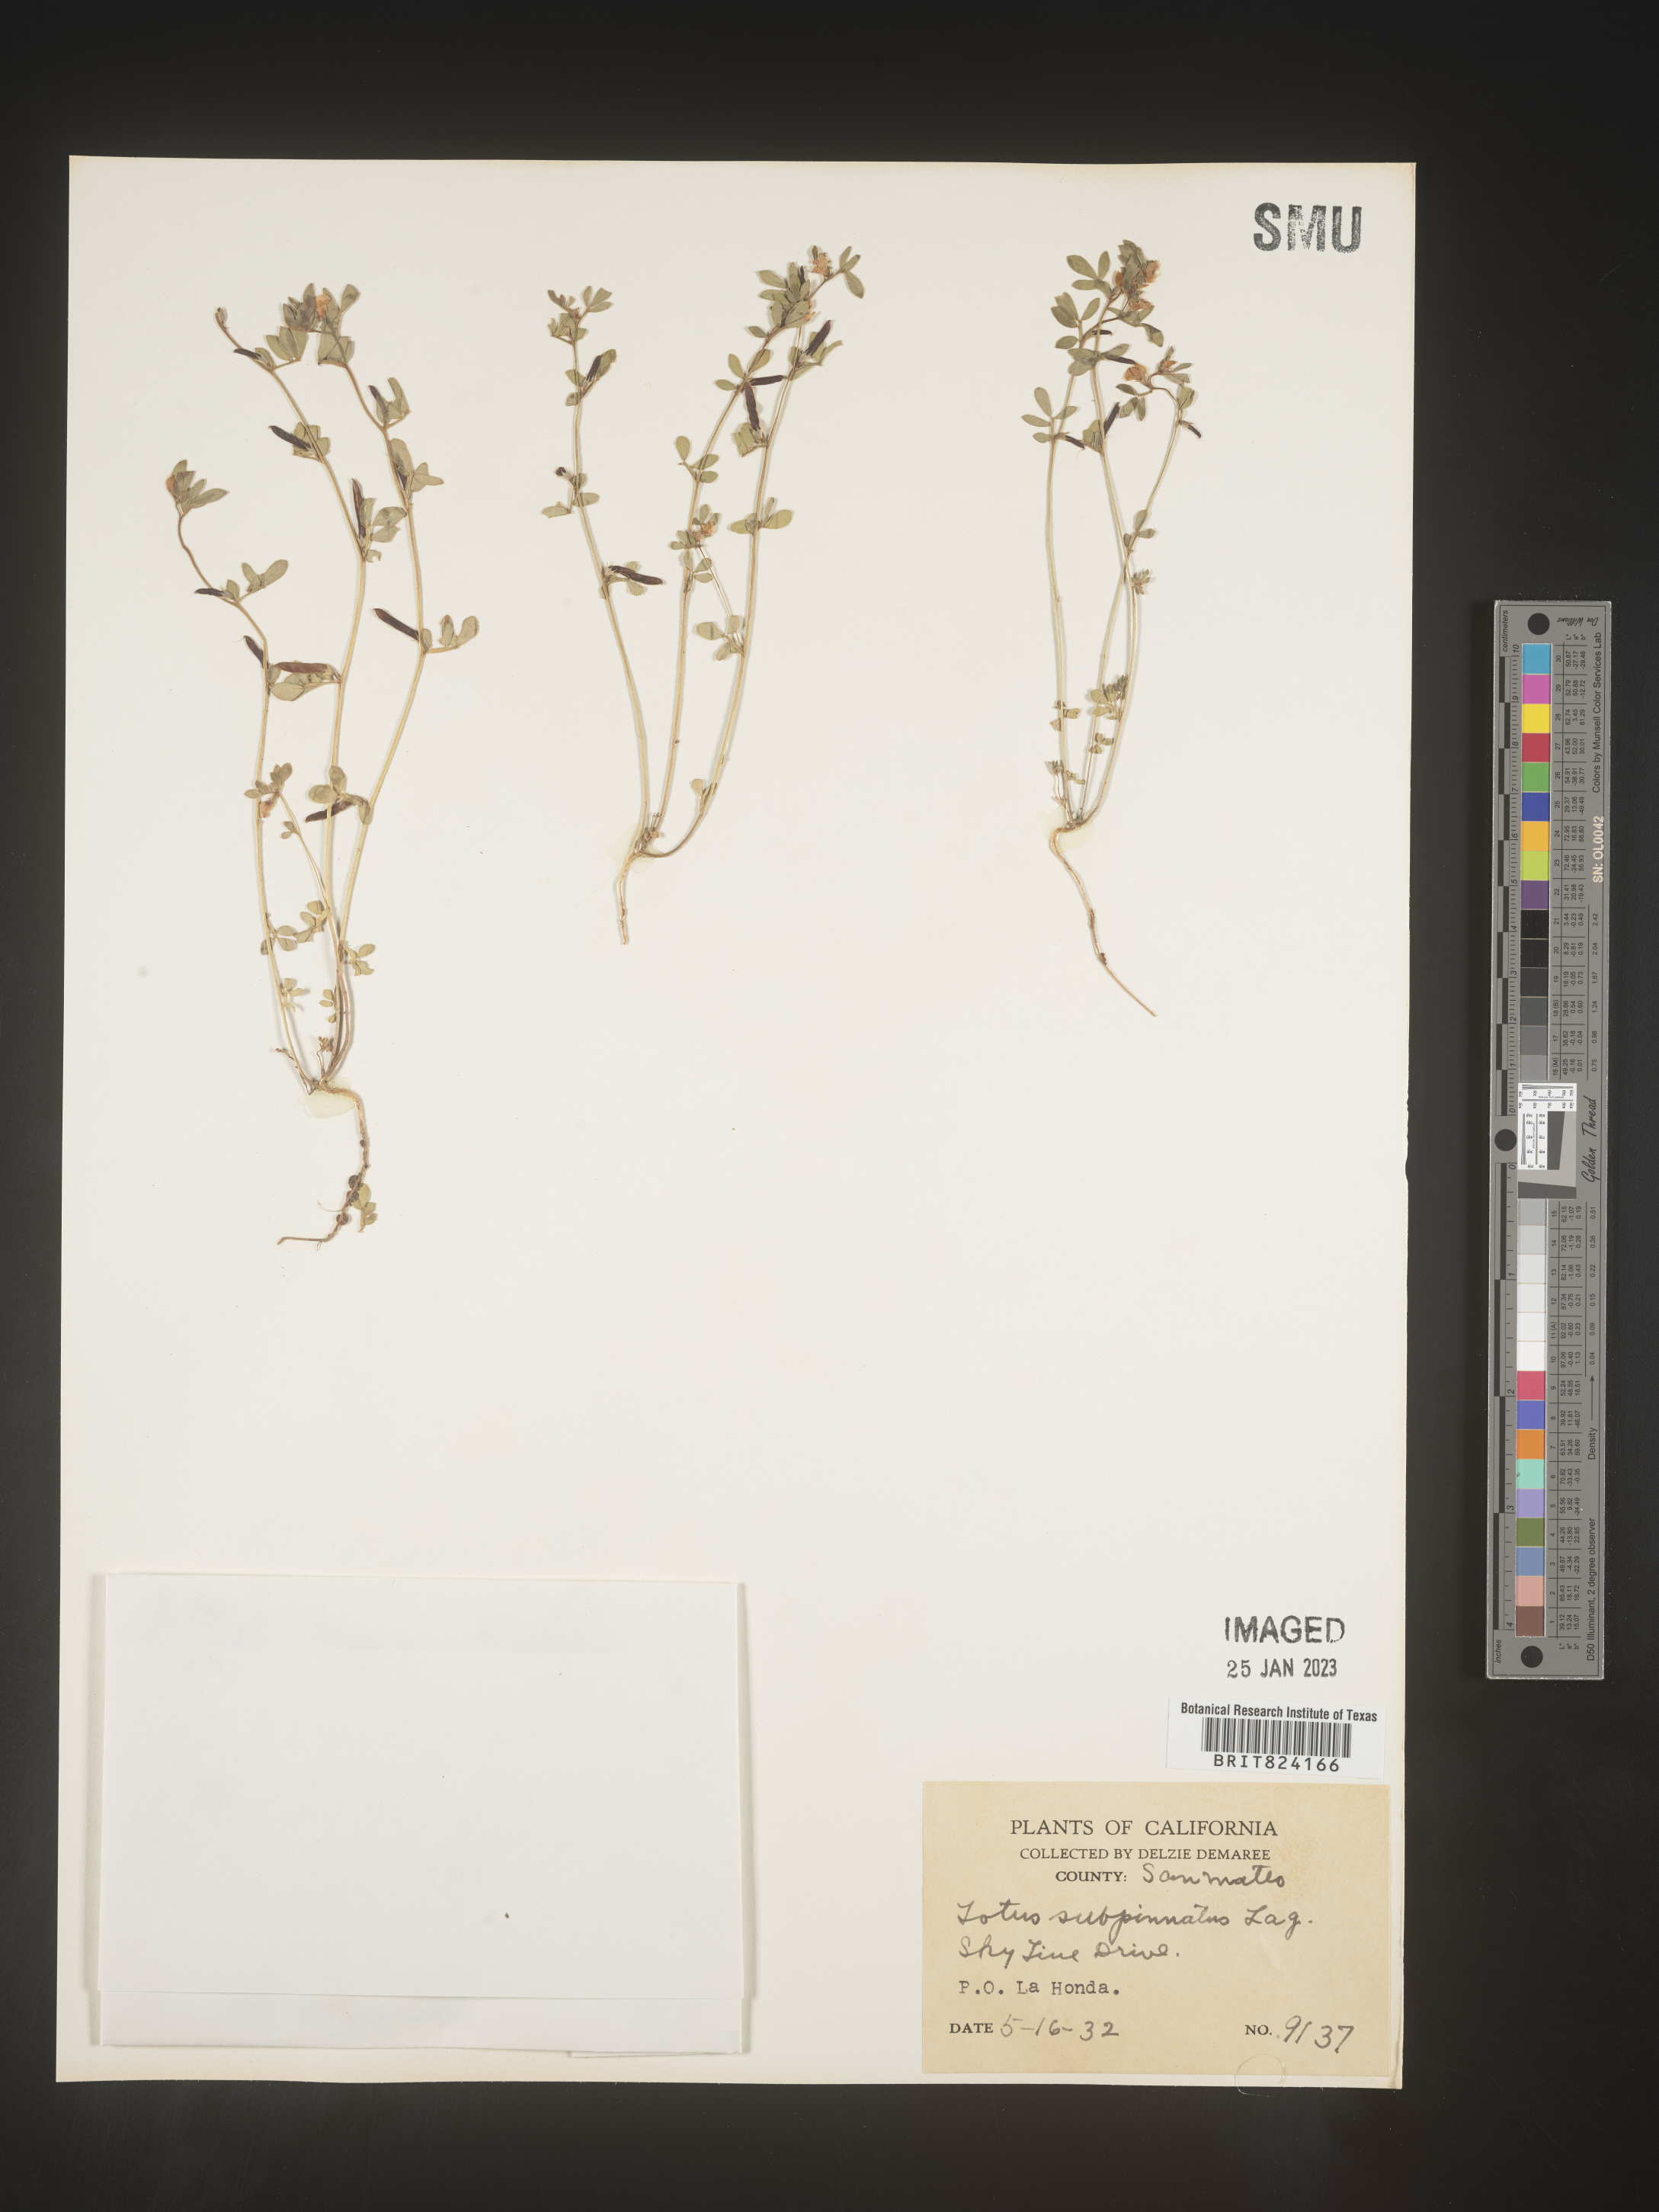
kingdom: Plantae
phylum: Tracheophyta
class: Magnoliopsida
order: Fabales
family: Fabaceae
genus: Lotus
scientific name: Lotus
